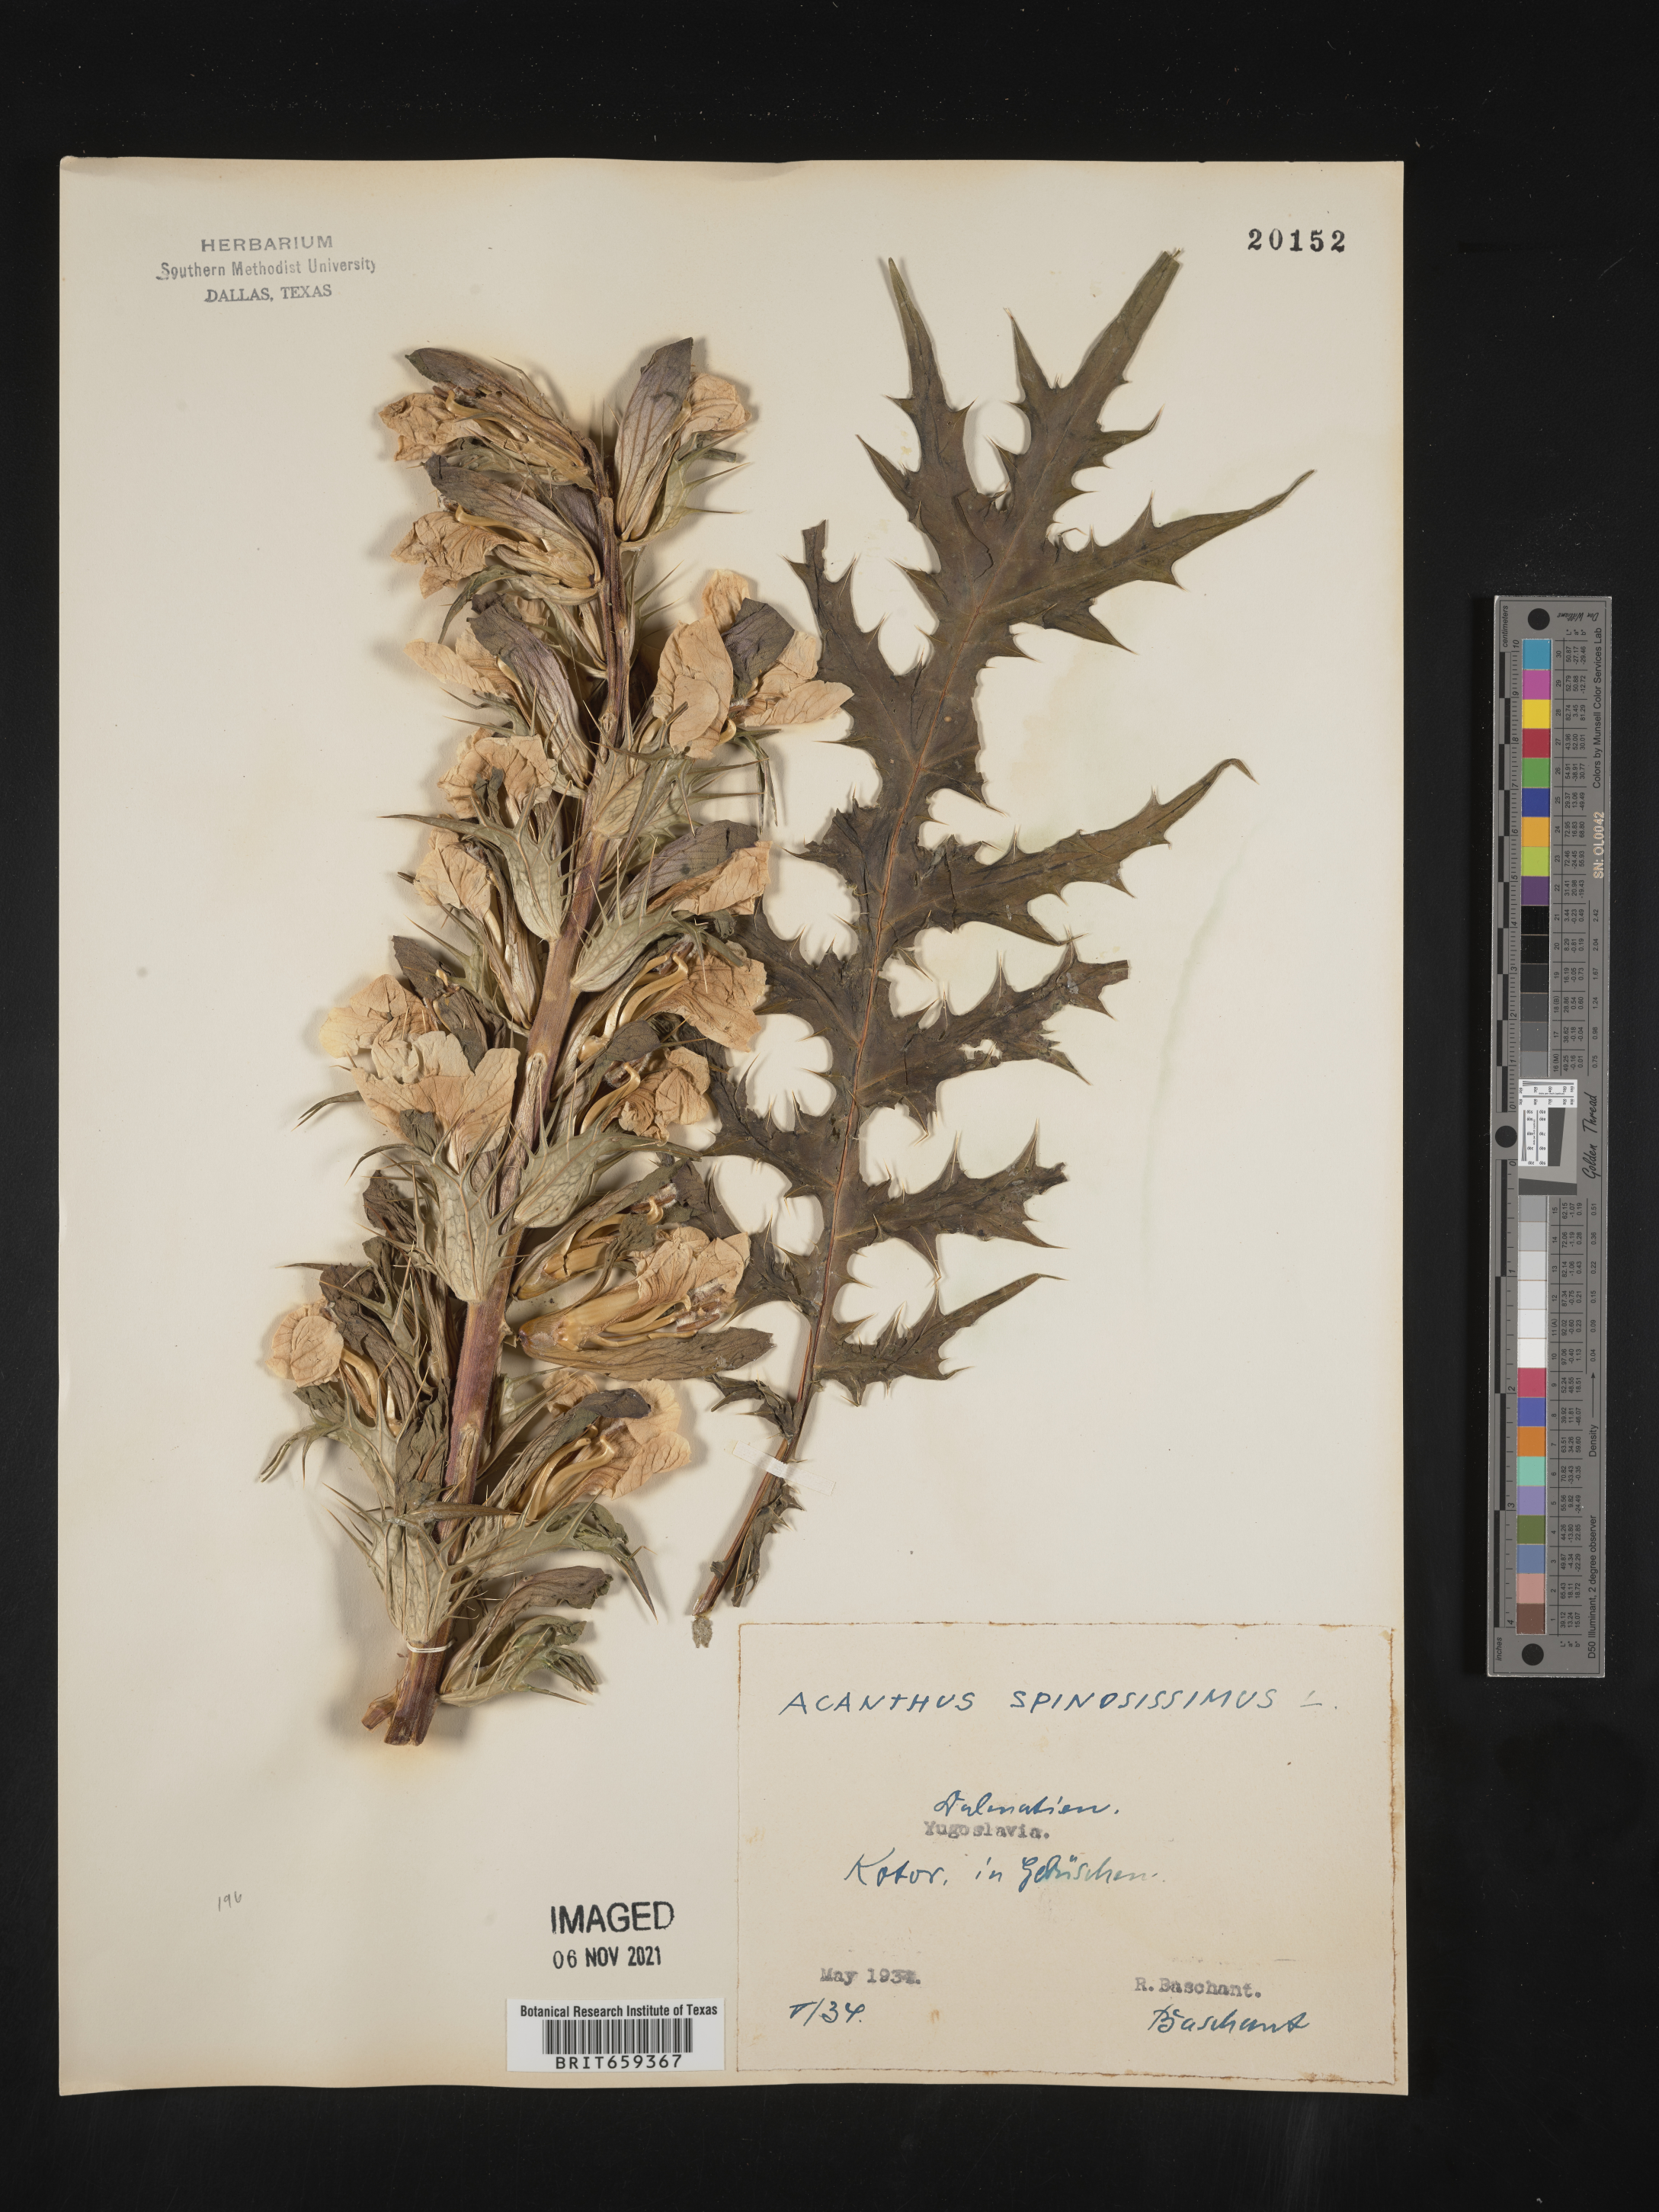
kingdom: Plantae
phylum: Tracheophyta
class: Magnoliopsida
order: Lamiales
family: Acanthaceae
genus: Acanthus
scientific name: Acanthus
